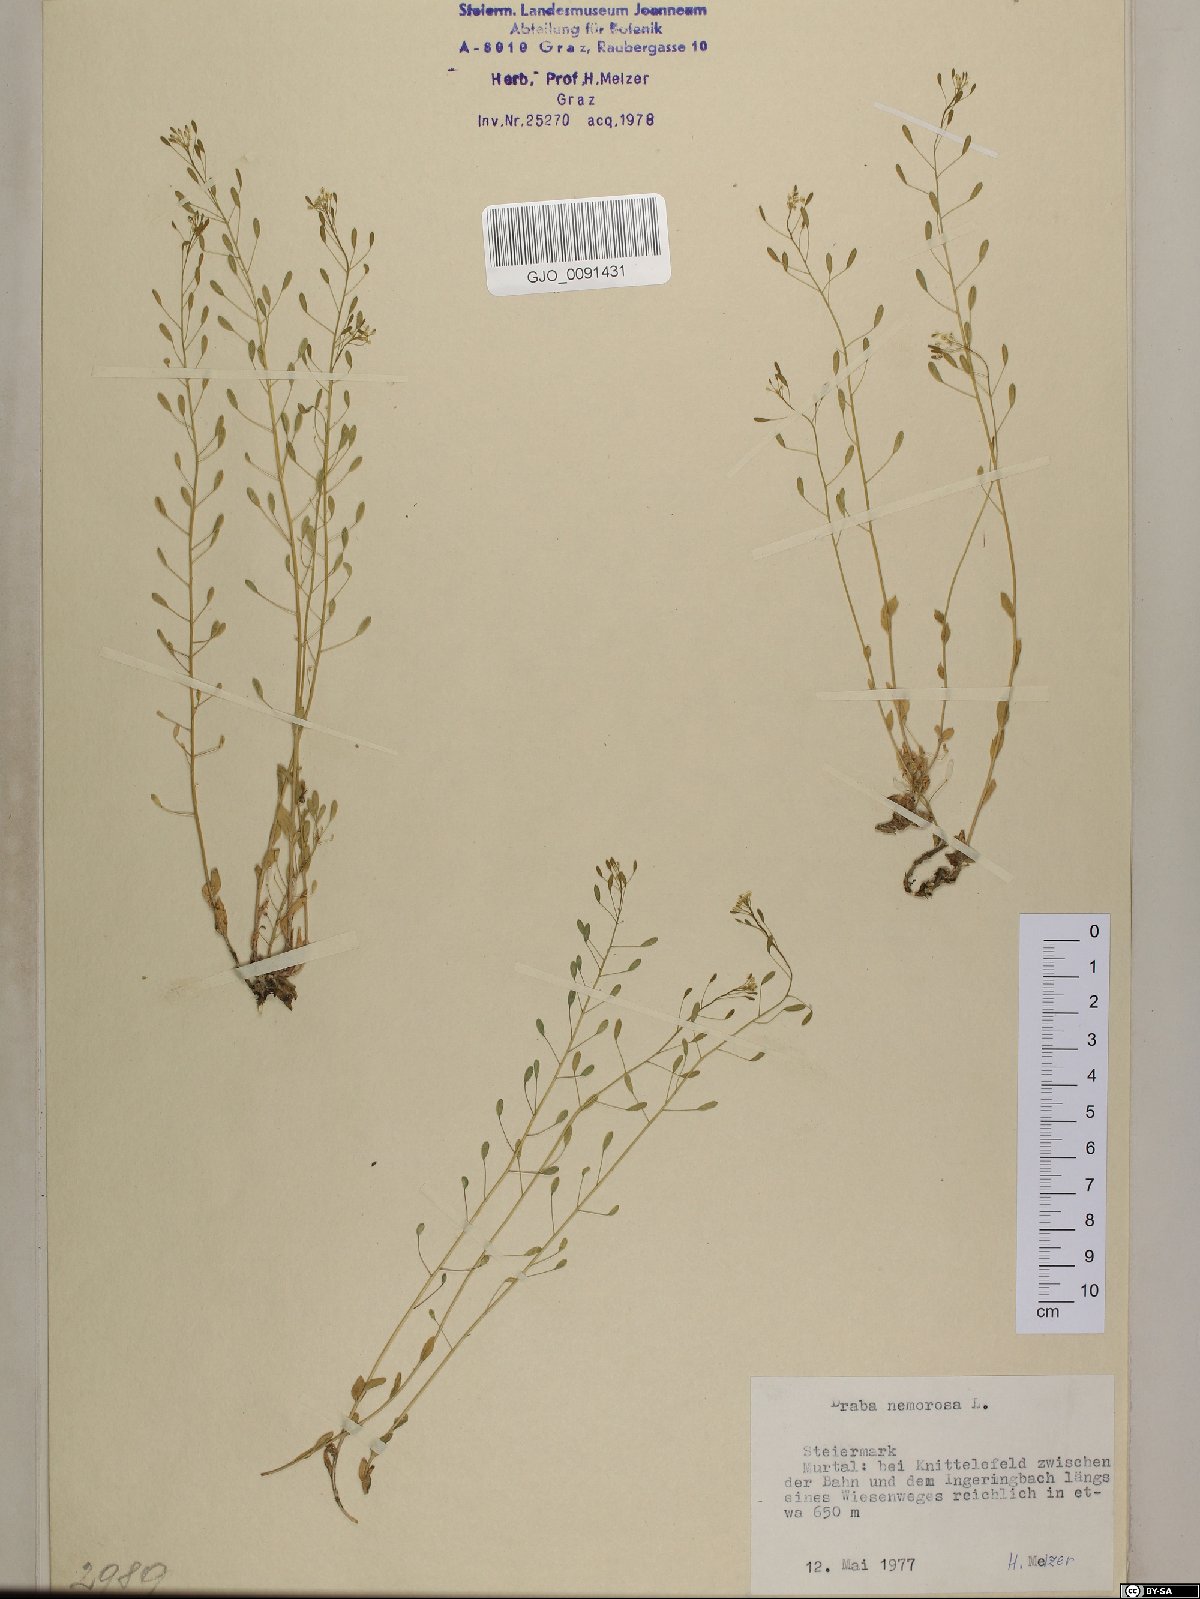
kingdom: Plantae
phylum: Tracheophyta
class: Magnoliopsida
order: Brassicales
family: Brassicaceae
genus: Draba
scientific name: Draba nemorosa
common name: Wood whitlow-grass
